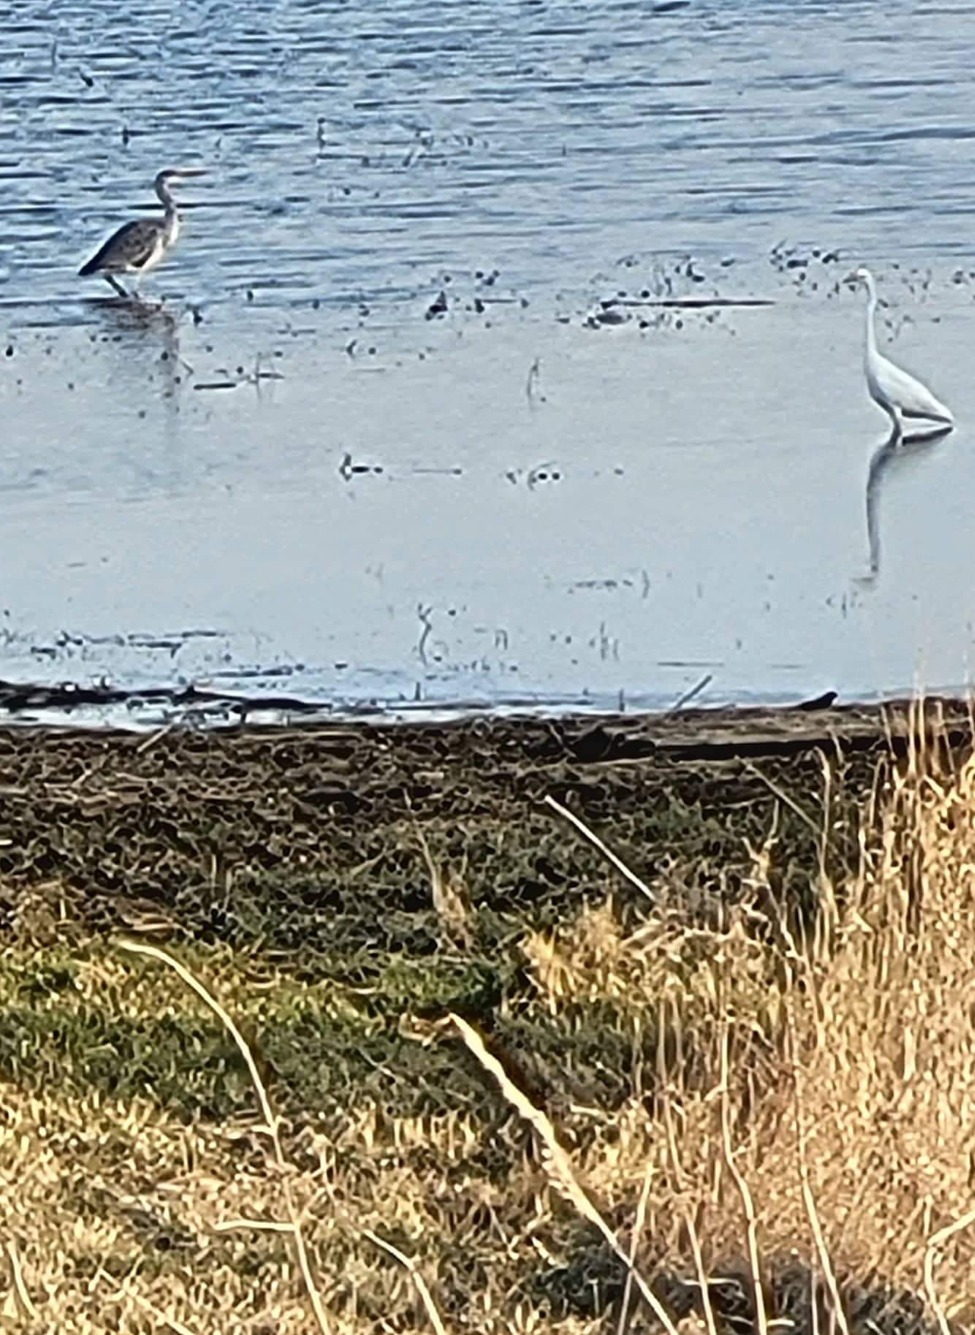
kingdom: Animalia
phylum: Chordata
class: Aves
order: Pelecaniformes
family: Ardeidae
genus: Ardea
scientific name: Ardea alba
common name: Sølvhejre
